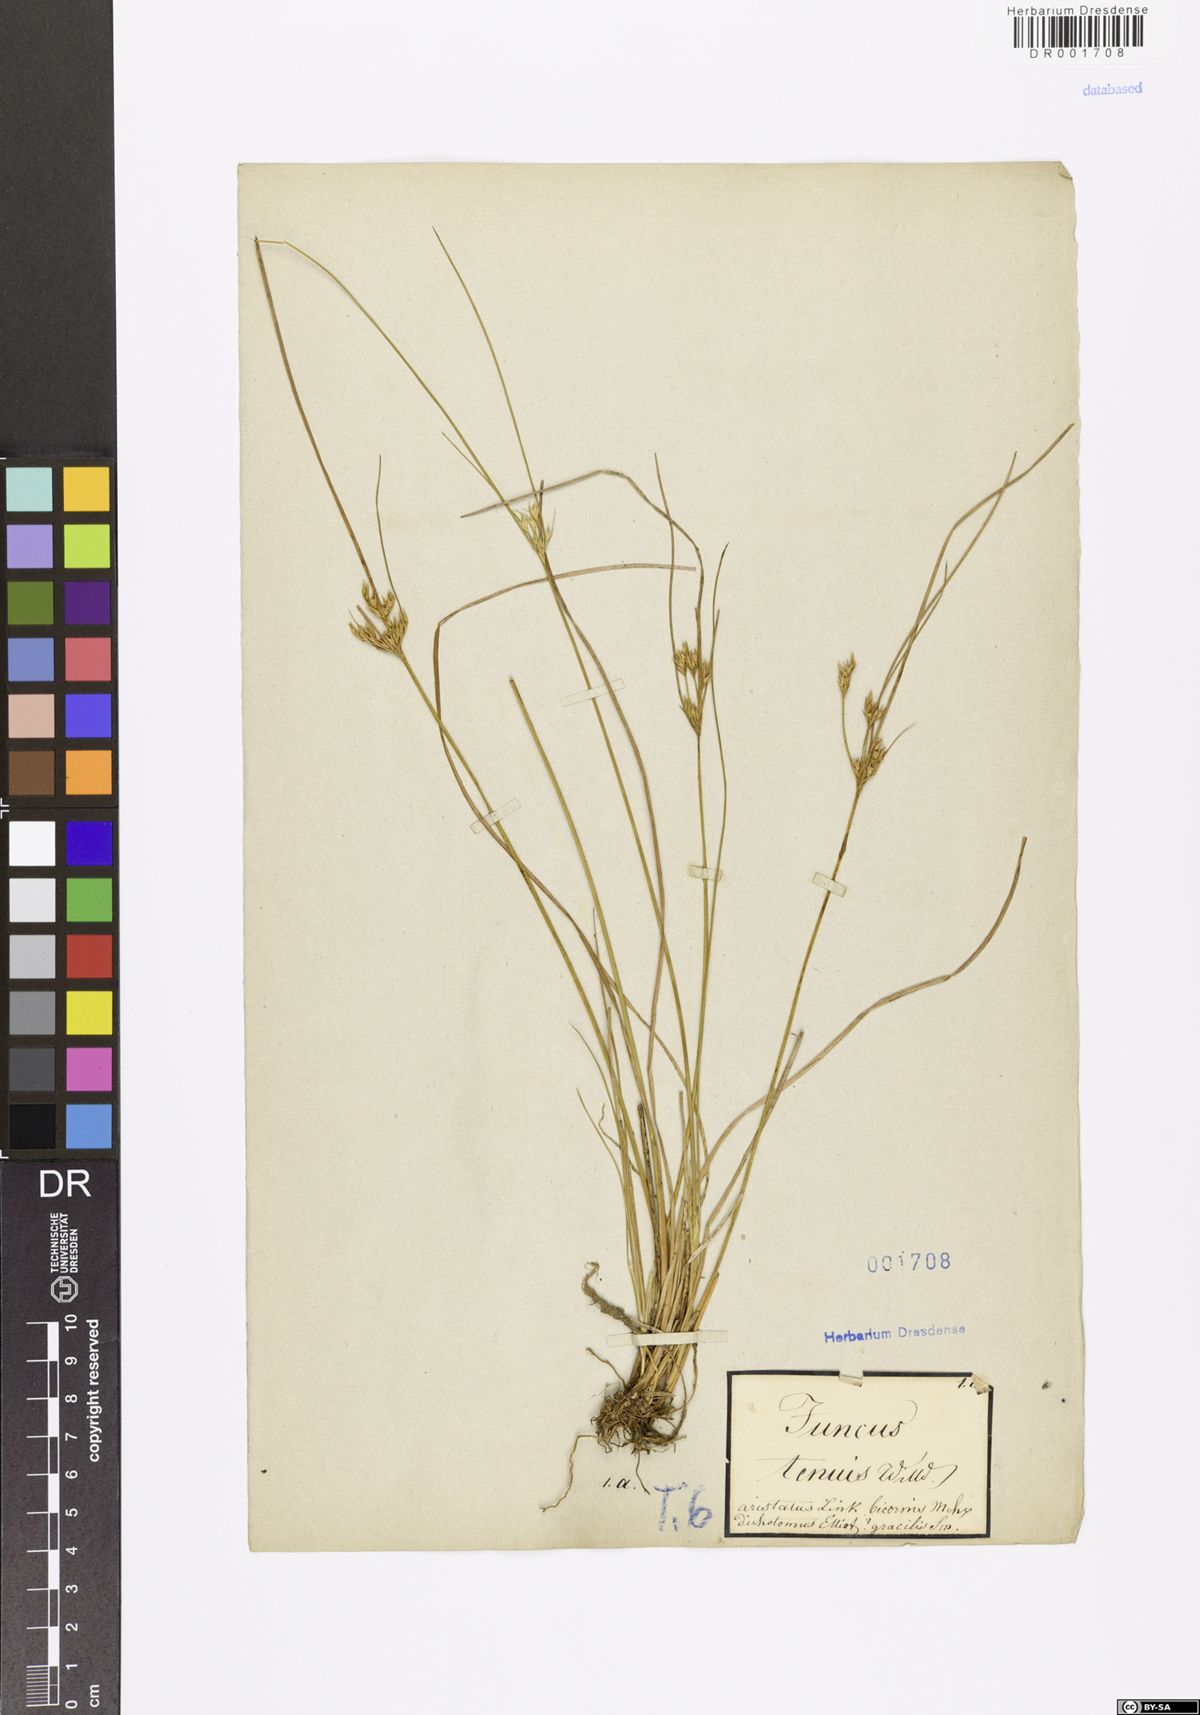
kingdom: Plantae
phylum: Tracheophyta
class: Liliopsida
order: Poales
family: Juncaceae
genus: Juncus
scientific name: Juncus tenuis
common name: Slender rush
